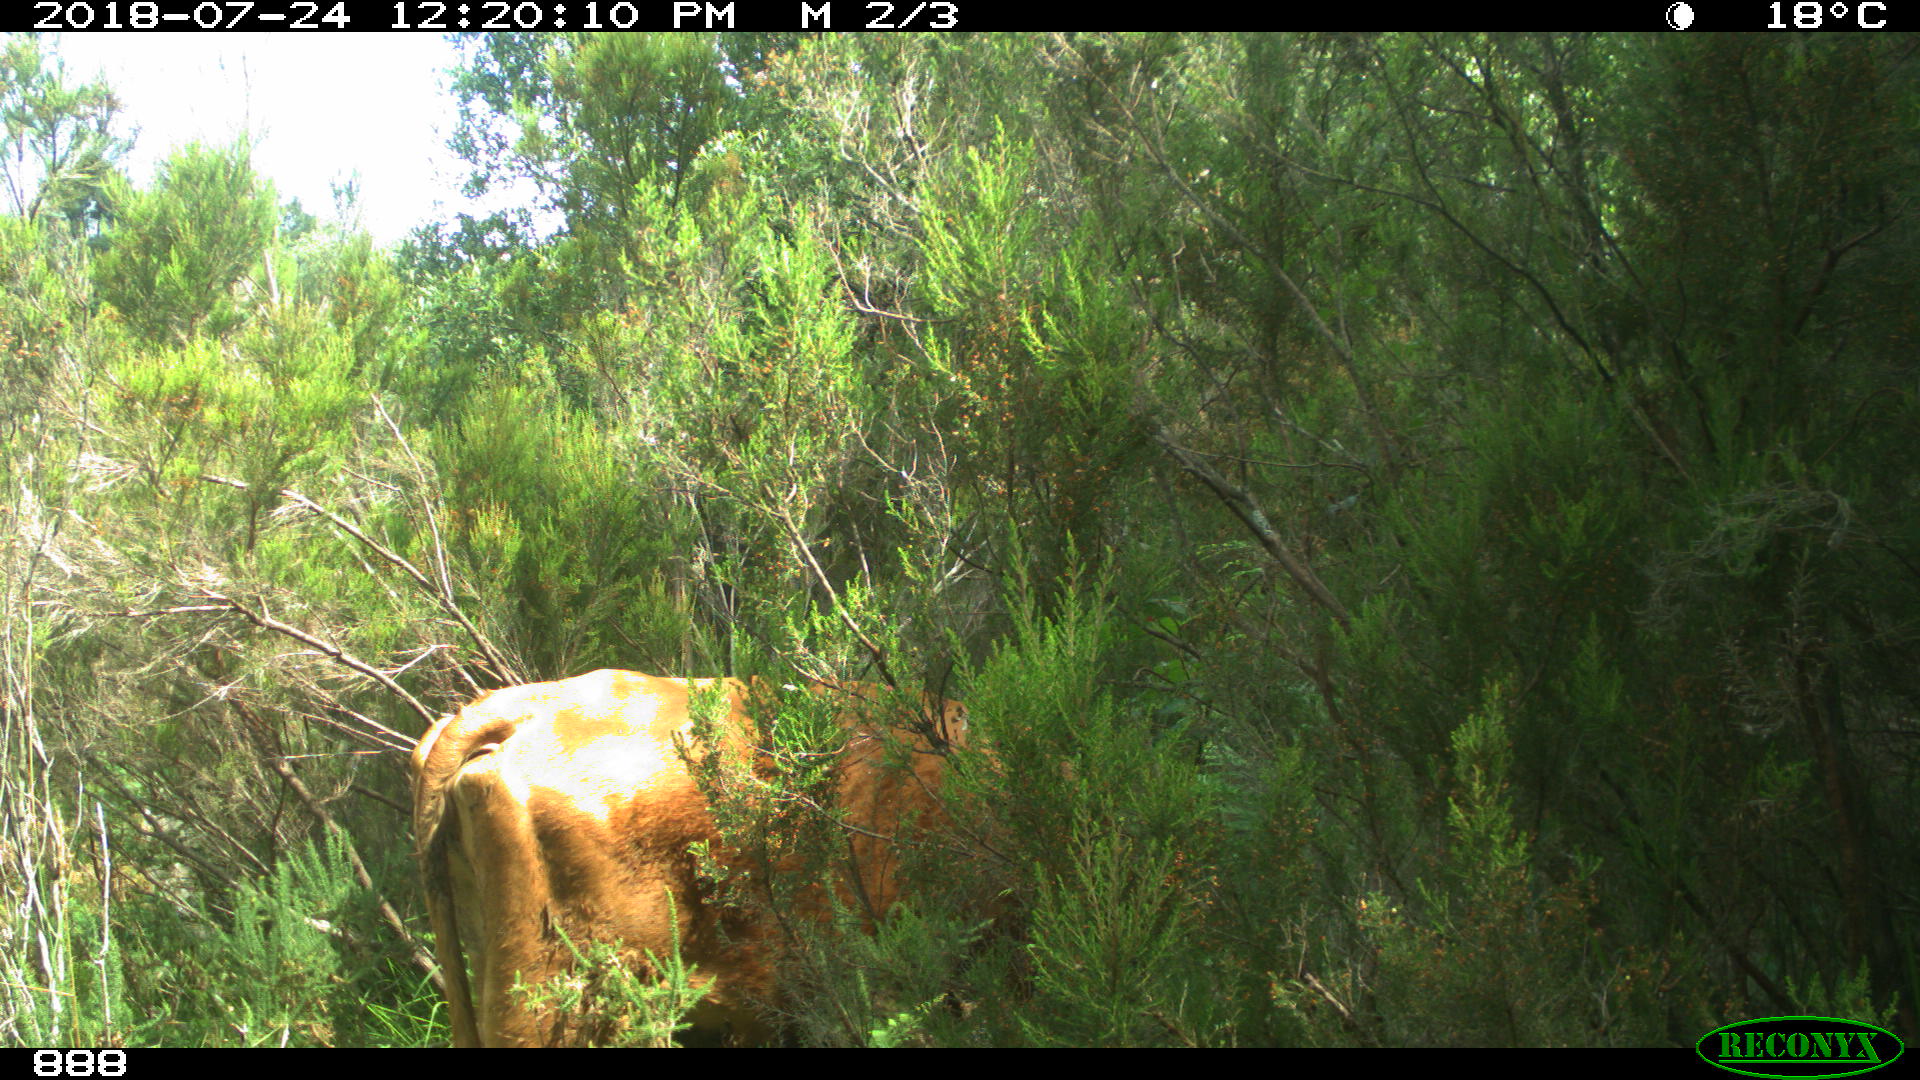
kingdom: Animalia
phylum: Chordata
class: Mammalia
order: Artiodactyla
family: Bovidae
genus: Bos
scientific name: Bos taurus
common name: Domesticated cattle
